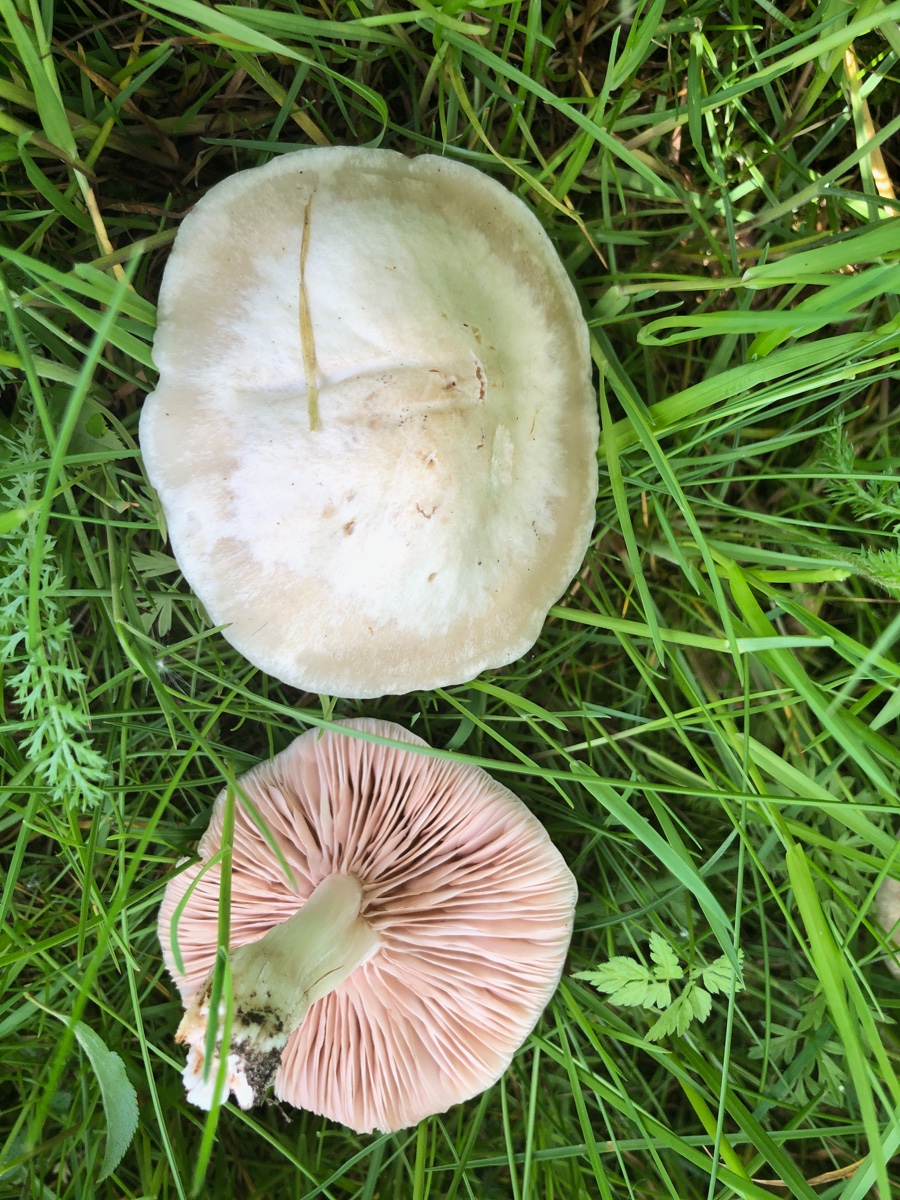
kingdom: Fungi
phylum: Basidiomycota
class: Agaricomycetes
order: Agaricales
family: Entolomataceae
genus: Entoloma
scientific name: Entoloma
